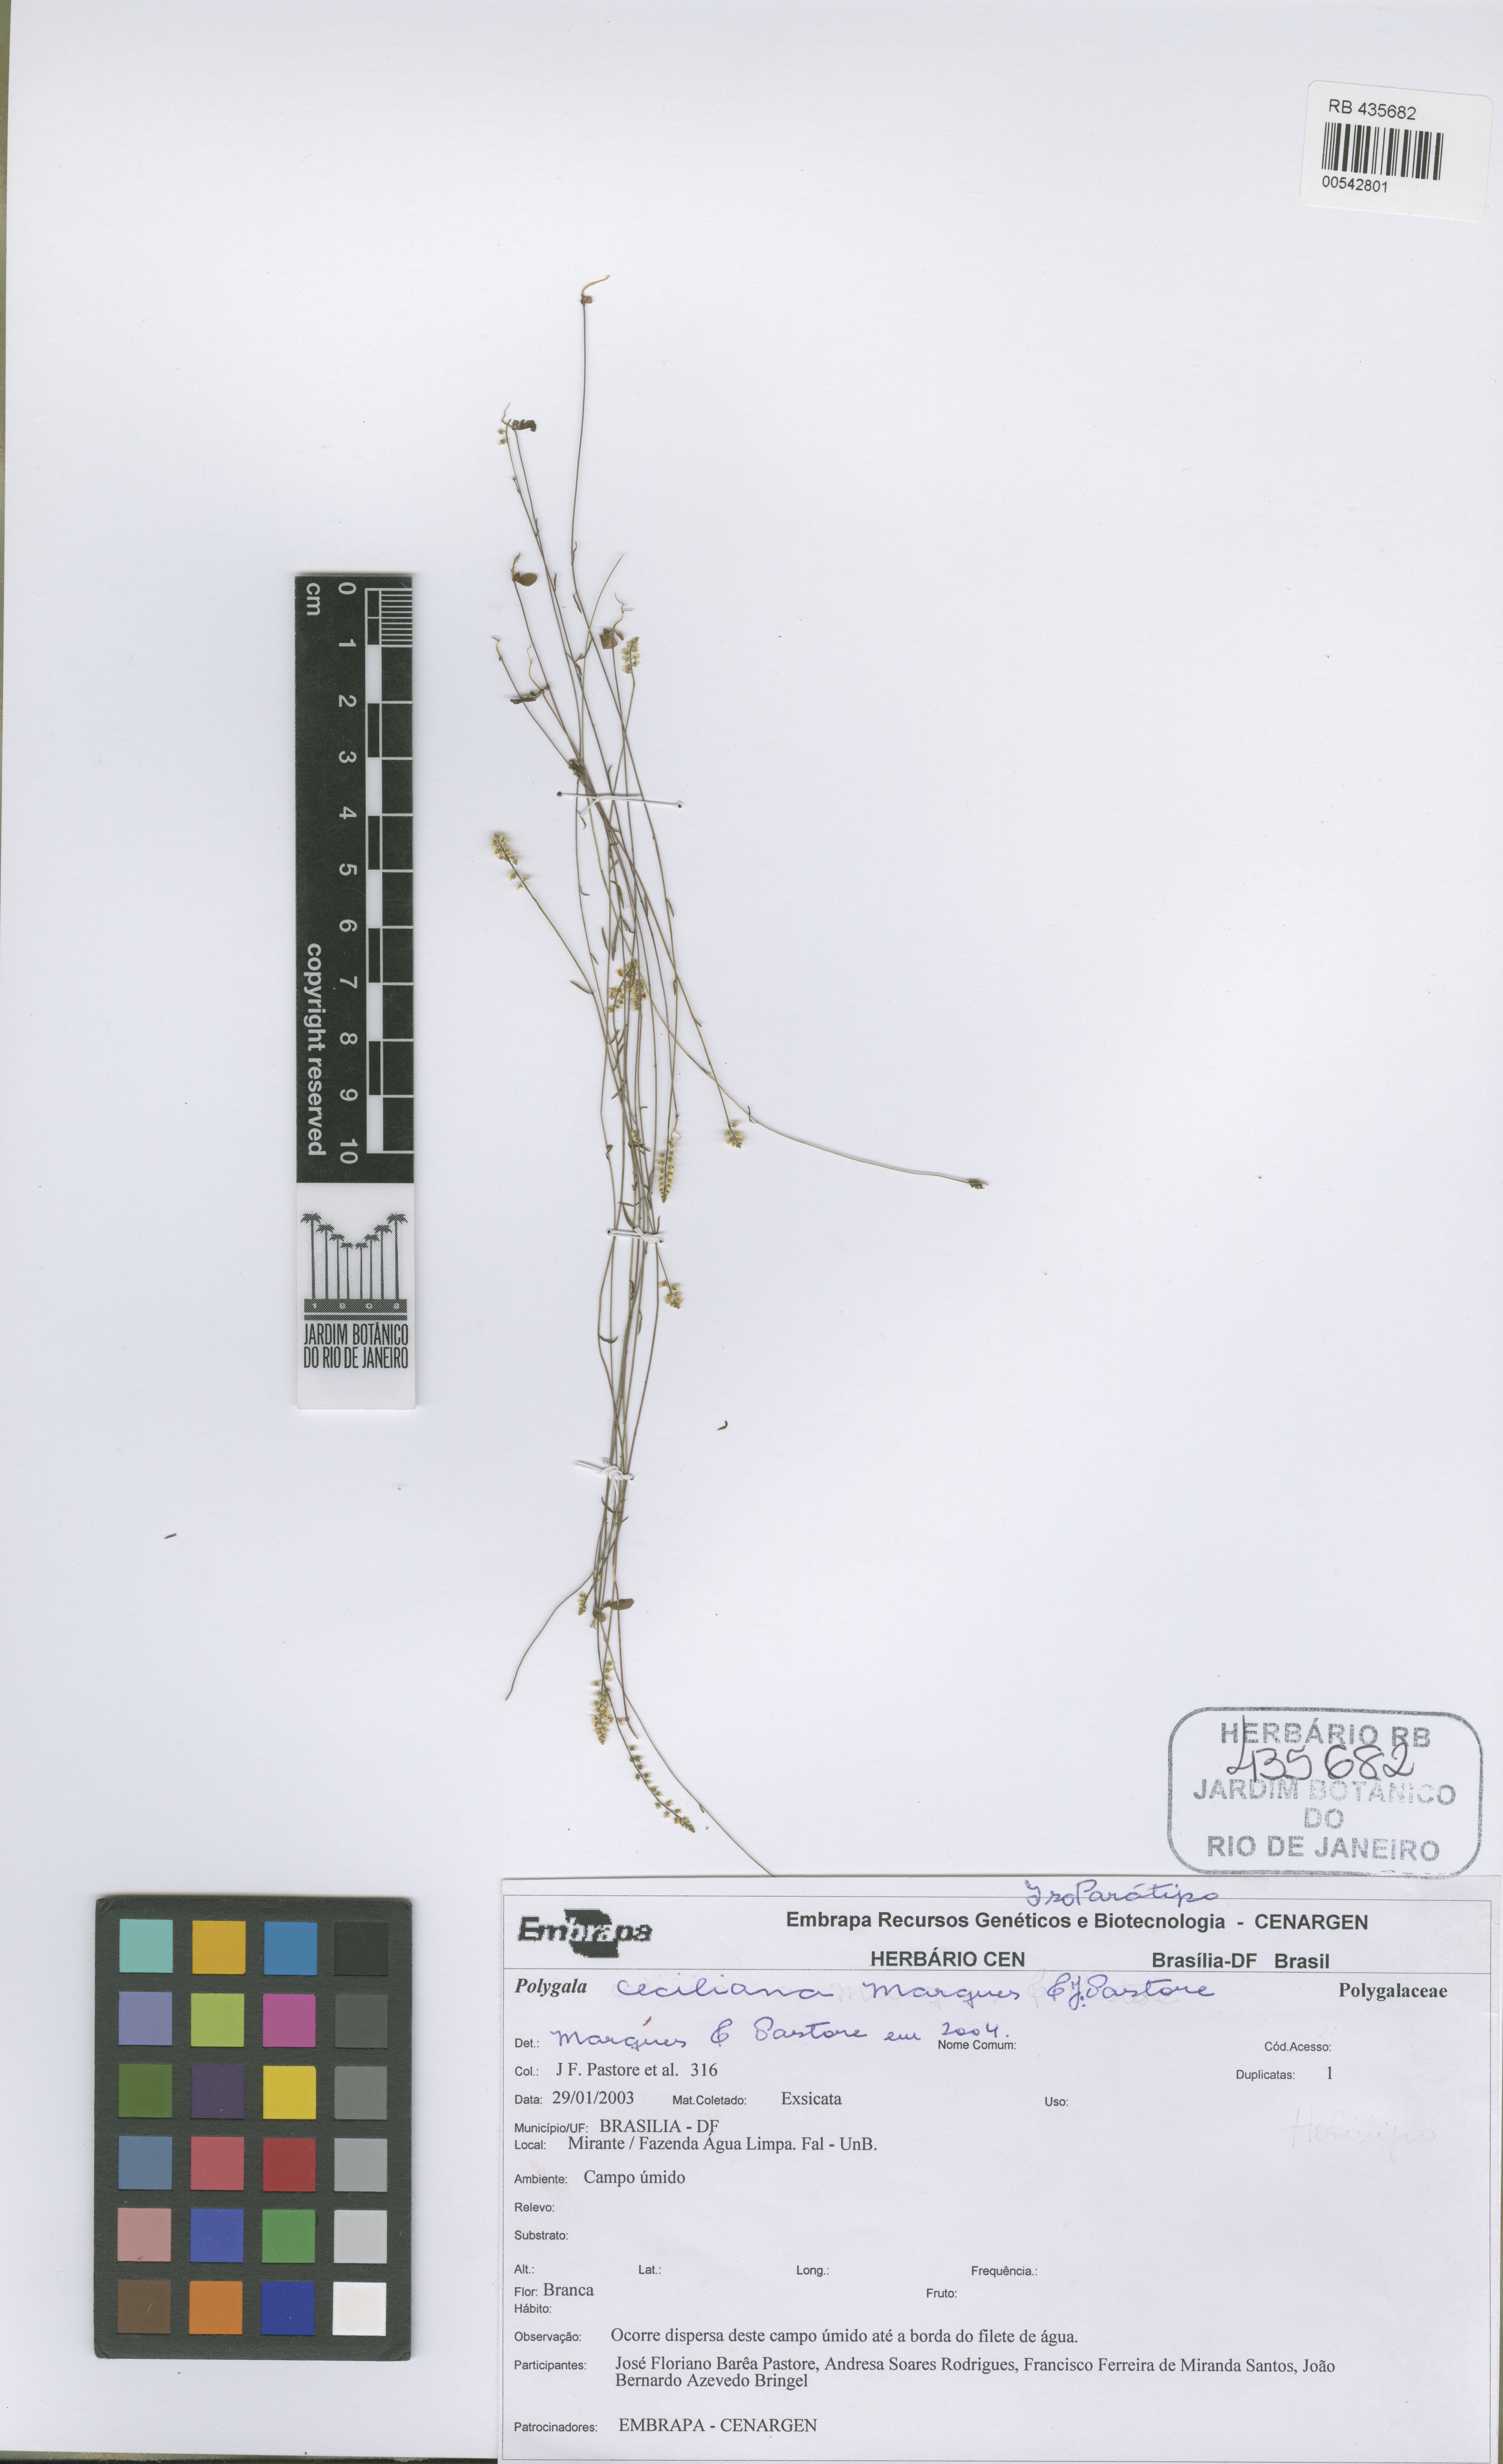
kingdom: Plantae
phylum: Tracheophyta
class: Magnoliopsida
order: Fabales
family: Polygalaceae
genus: Polygala
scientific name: Polygala ceciliana
